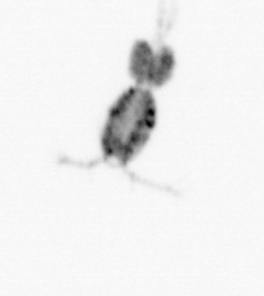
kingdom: Animalia
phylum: Arthropoda
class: Copepoda
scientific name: Copepoda
